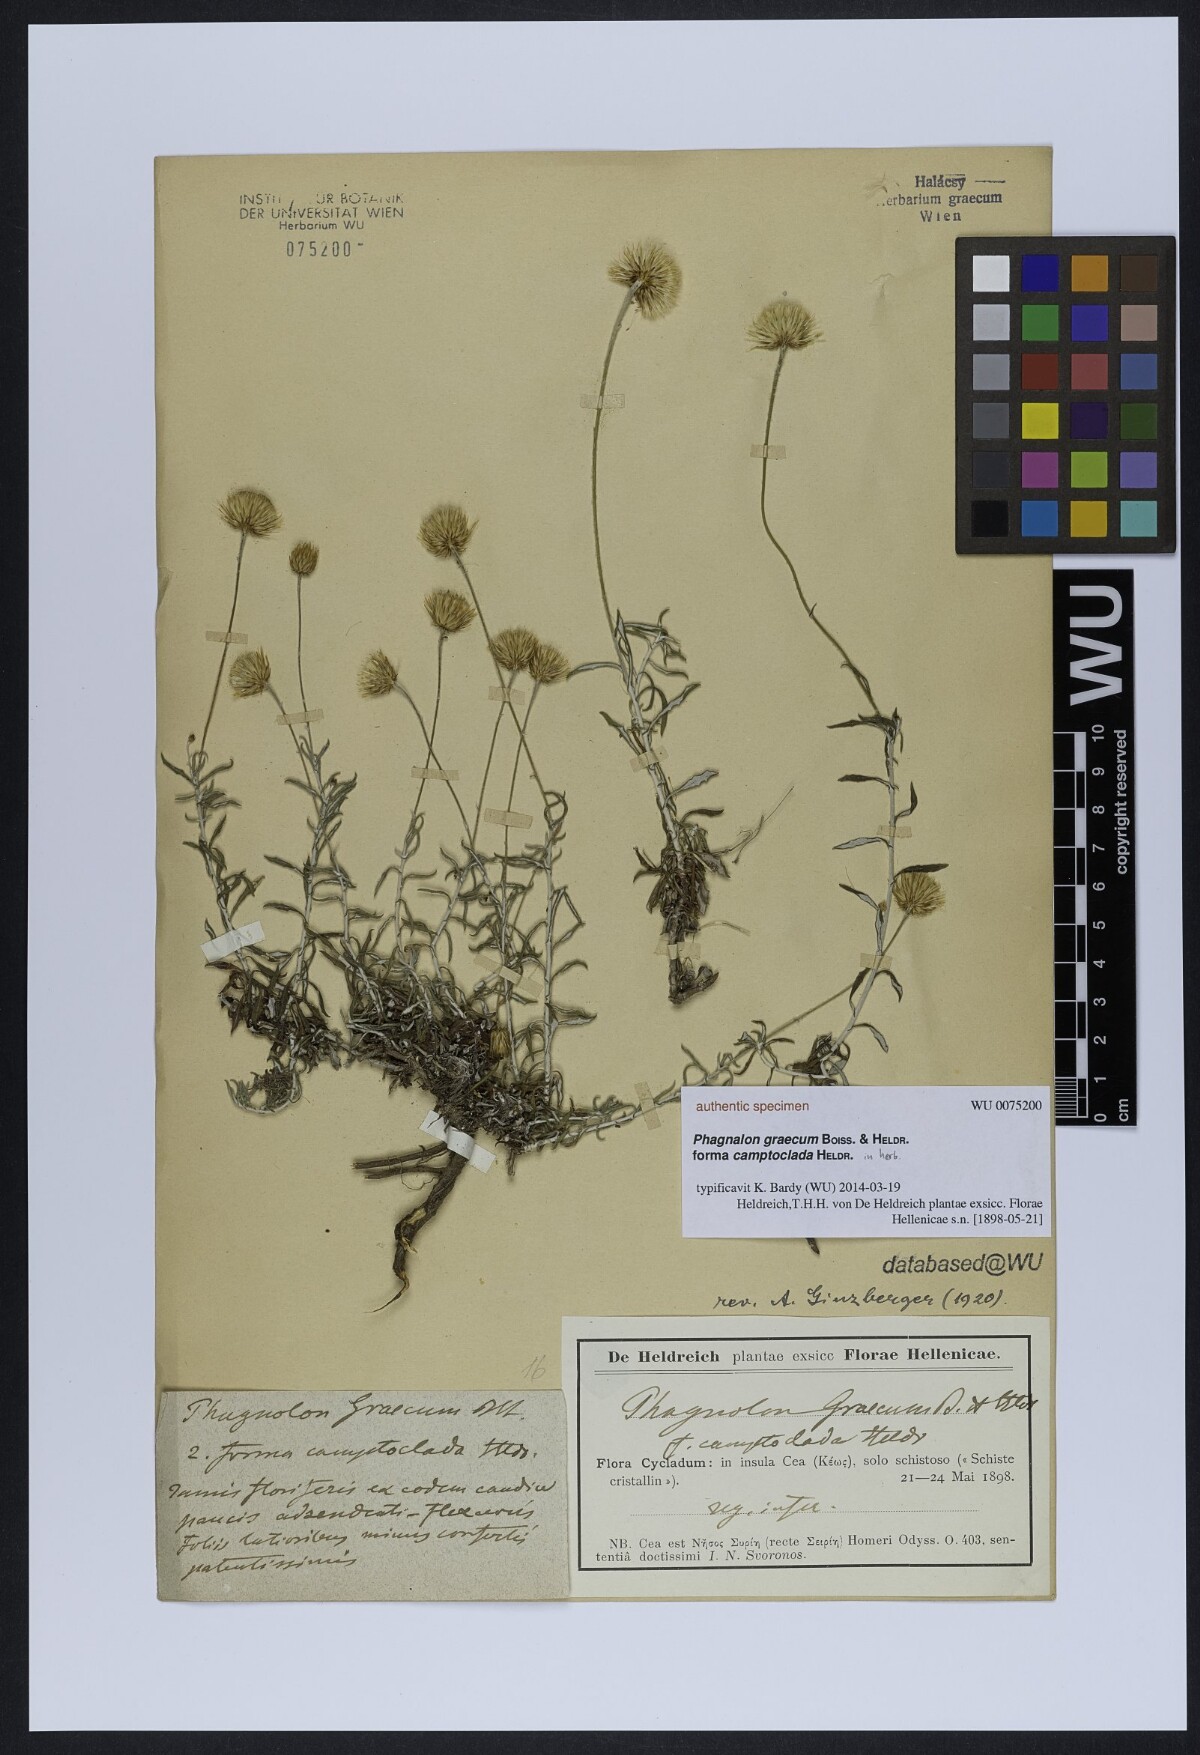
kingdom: Plantae
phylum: Tracheophyta
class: Magnoliopsida
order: Asterales
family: Asteraceae
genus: Phagnalon
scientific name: Phagnalon graecum
